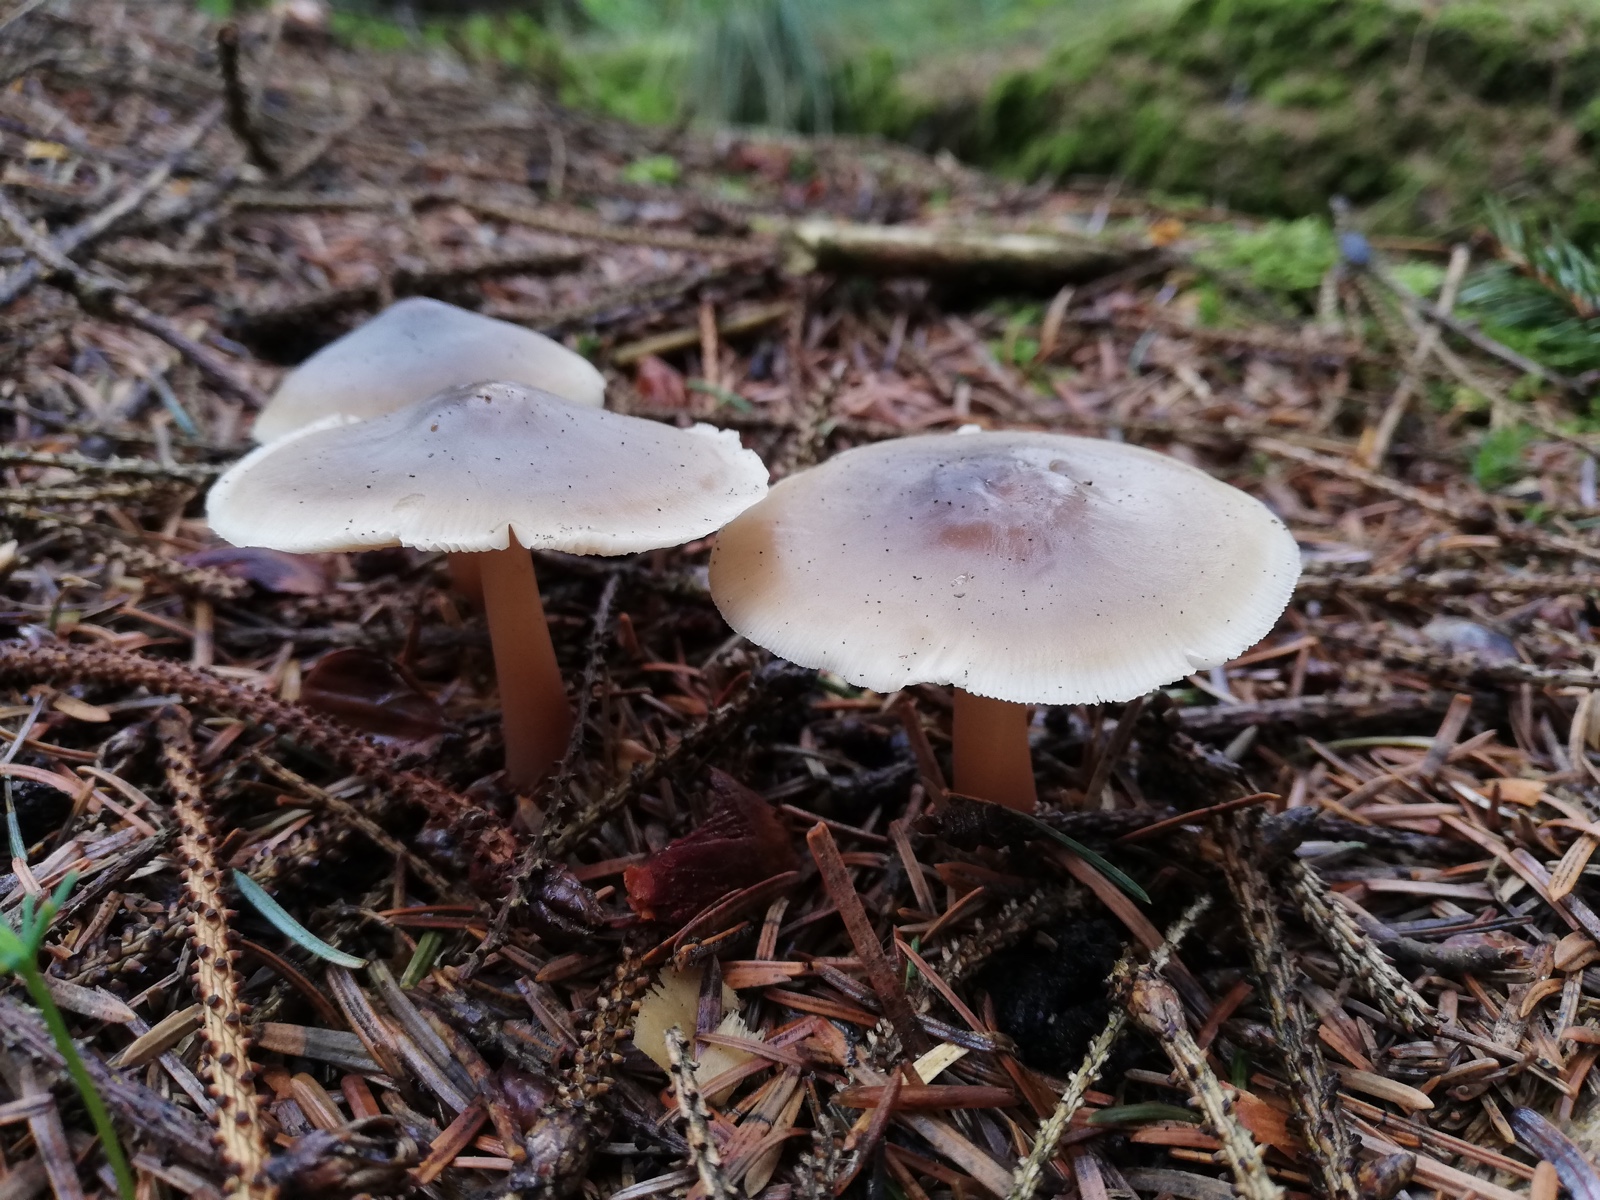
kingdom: Fungi
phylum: Basidiomycota
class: Agaricomycetes
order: Agaricales
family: Omphalotaceae
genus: Rhodocollybia
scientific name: Rhodocollybia asema
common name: horngrå fladhat
